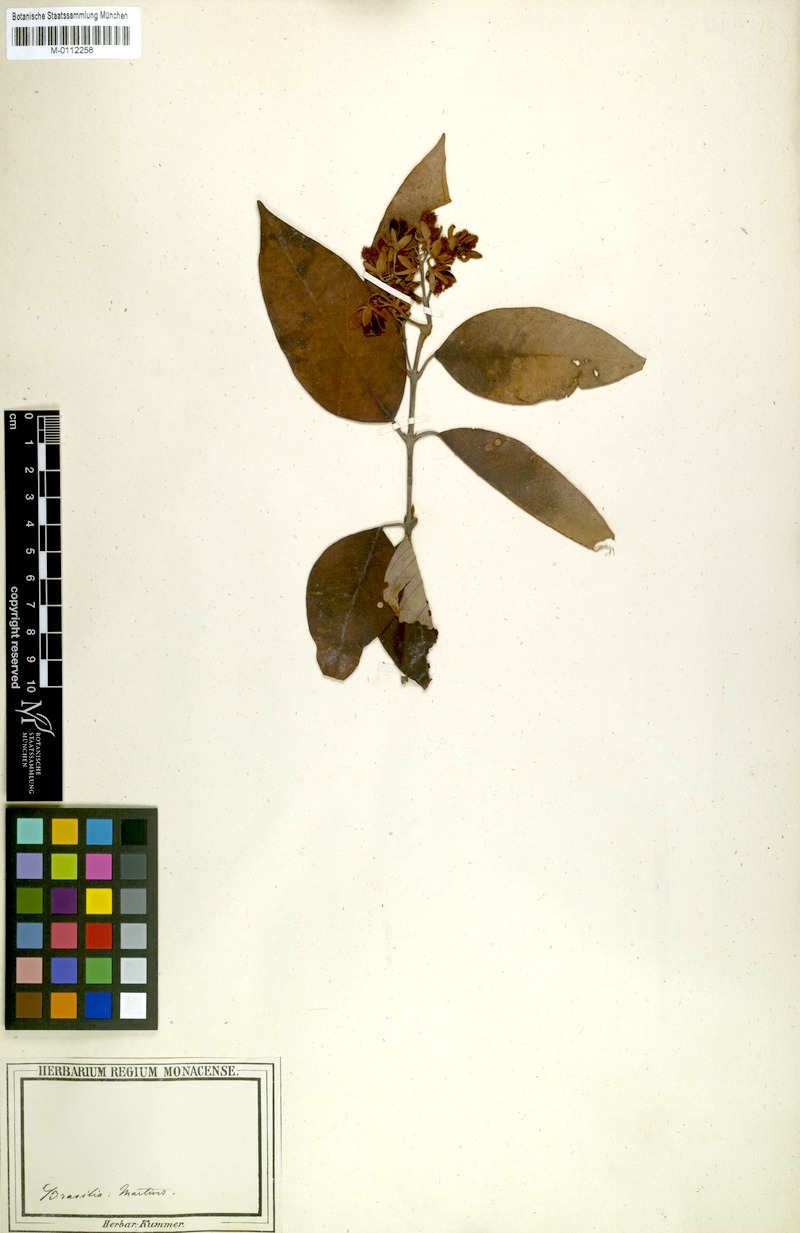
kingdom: Plantae
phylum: Tracheophyta
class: Magnoliopsida
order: Malpighiales
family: Hypericaceae
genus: Vismia
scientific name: Vismia martiana
